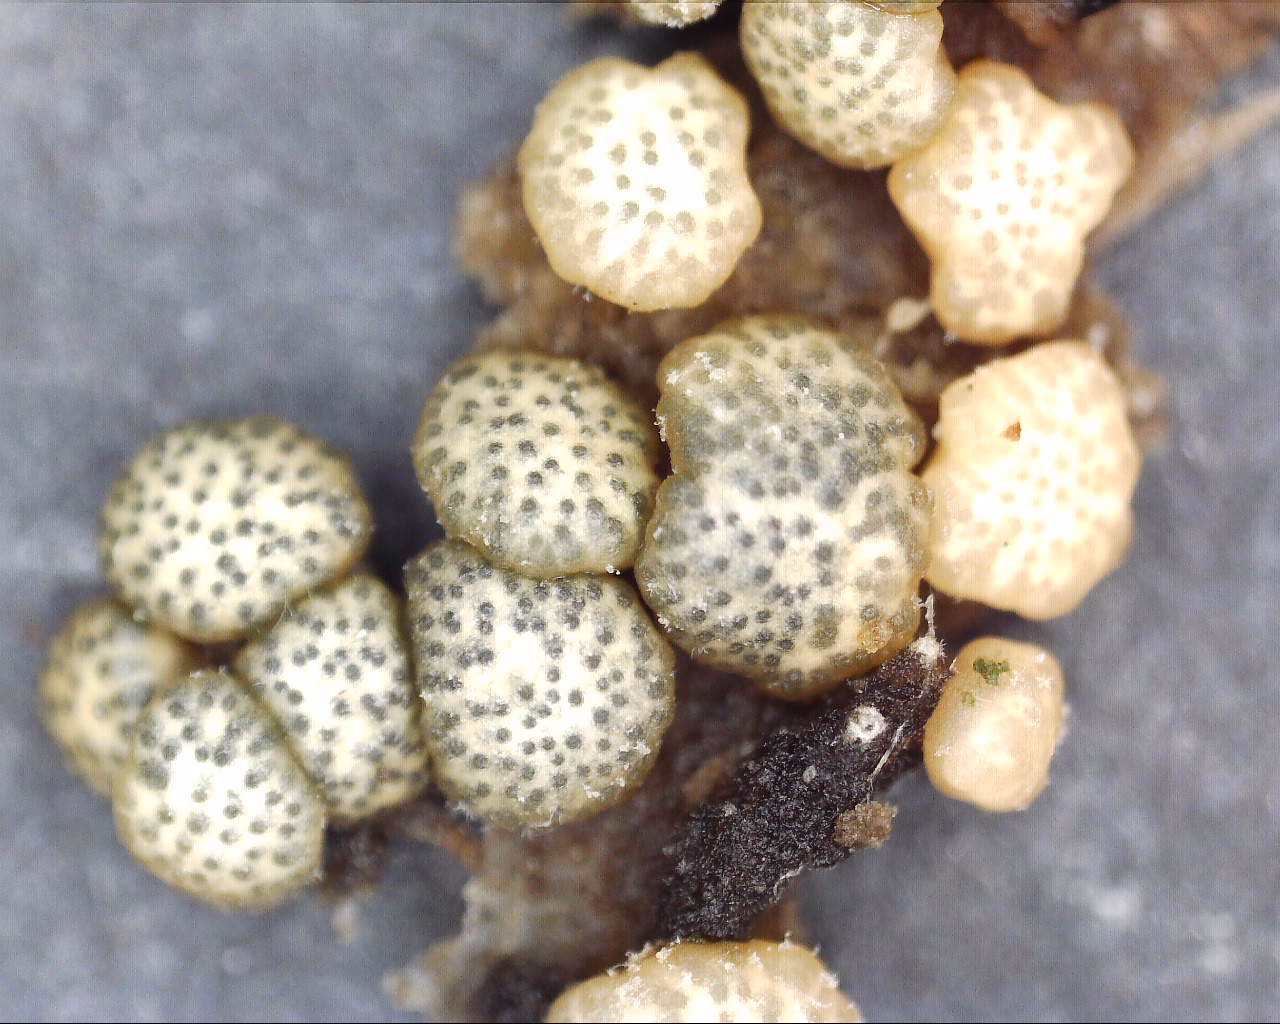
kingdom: Fungi
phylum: Ascomycota
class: Sordariomycetes
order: Hypocreales
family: Hypocreaceae
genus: Trichoderma
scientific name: Trichoderma strictipile
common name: grønprikket kødkerne
